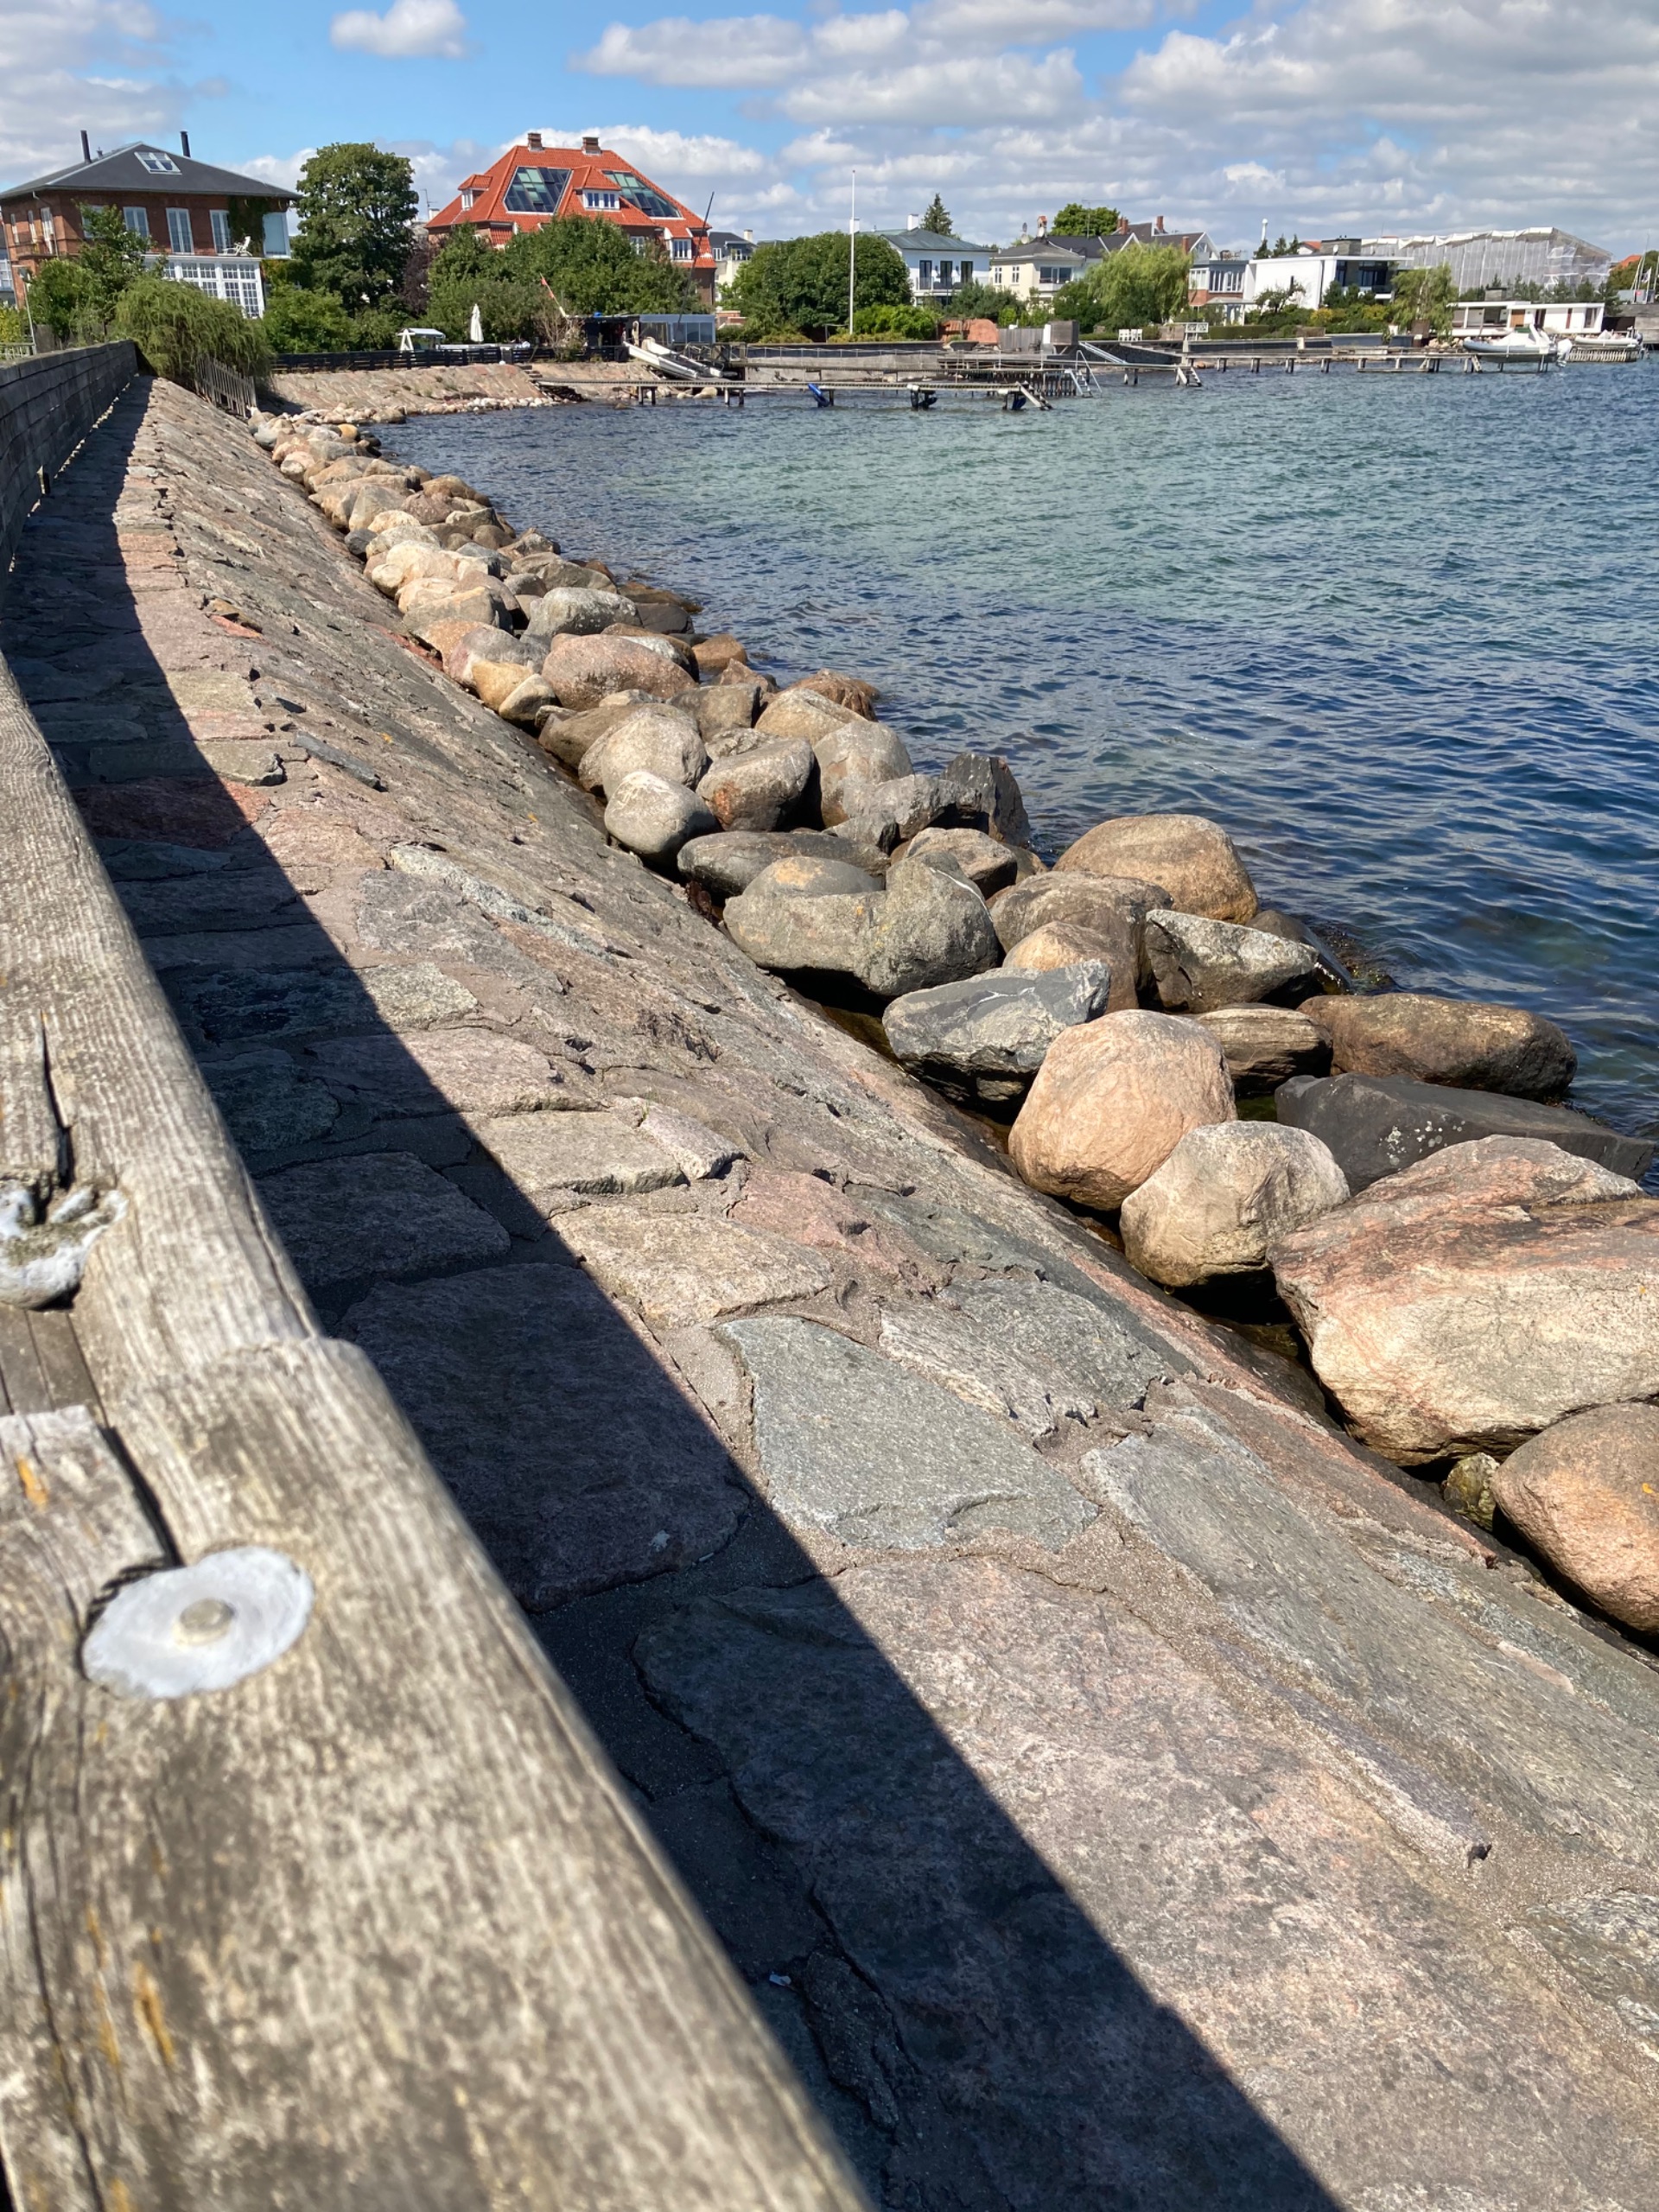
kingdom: Animalia
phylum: Chordata
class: Mammalia
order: Carnivora
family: Mustelidae
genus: Mustela
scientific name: Mustela vison
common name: Mink
